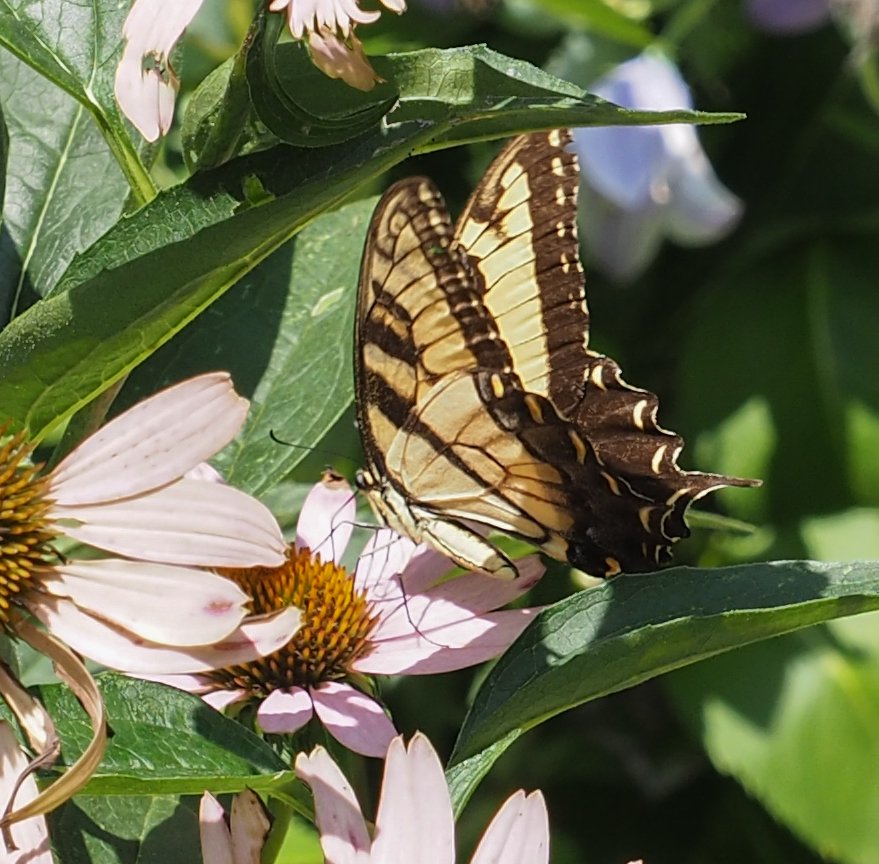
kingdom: Animalia
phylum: Arthropoda
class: Insecta
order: Lepidoptera
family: Papilionidae
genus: Pterourus
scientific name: Pterourus glaucus
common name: Eastern Tiger Swallowtail
